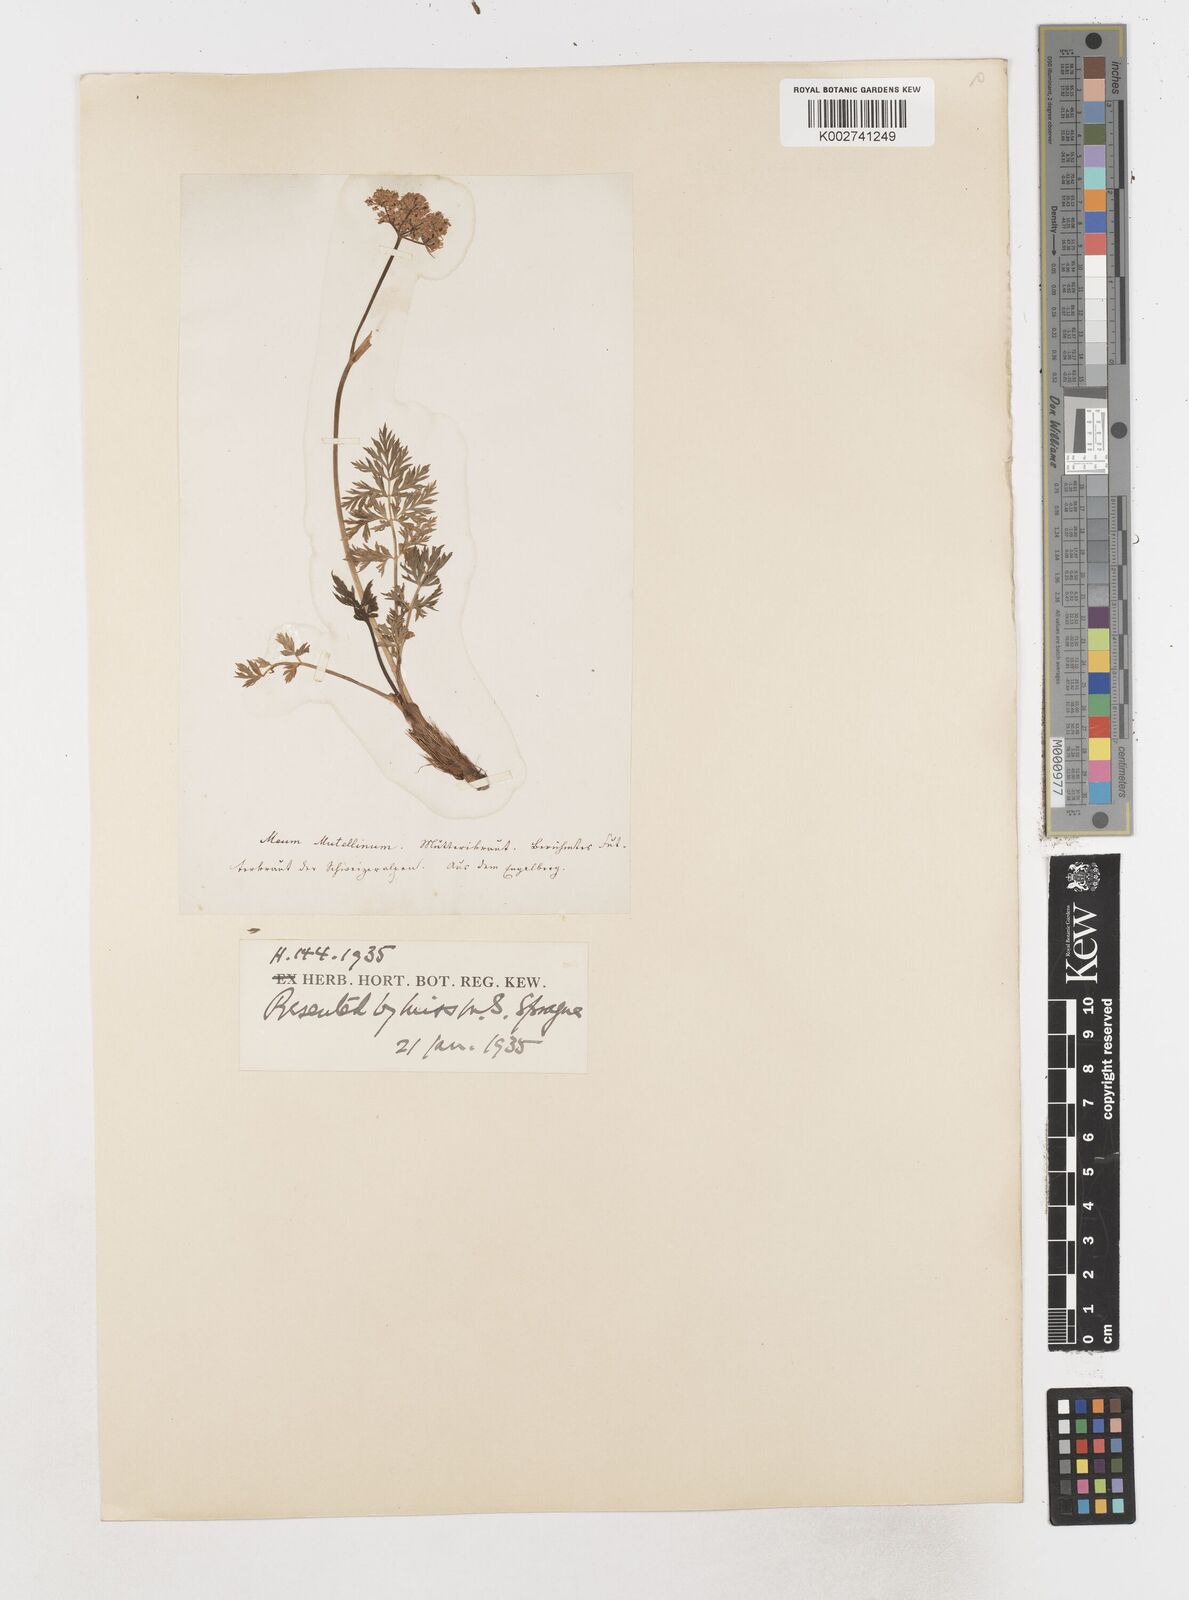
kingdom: Plantae
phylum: Tracheophyta
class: Magnoliopsida
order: Apiales
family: Apiaceae
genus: Mutellina
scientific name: Mutellina adonidifolia
